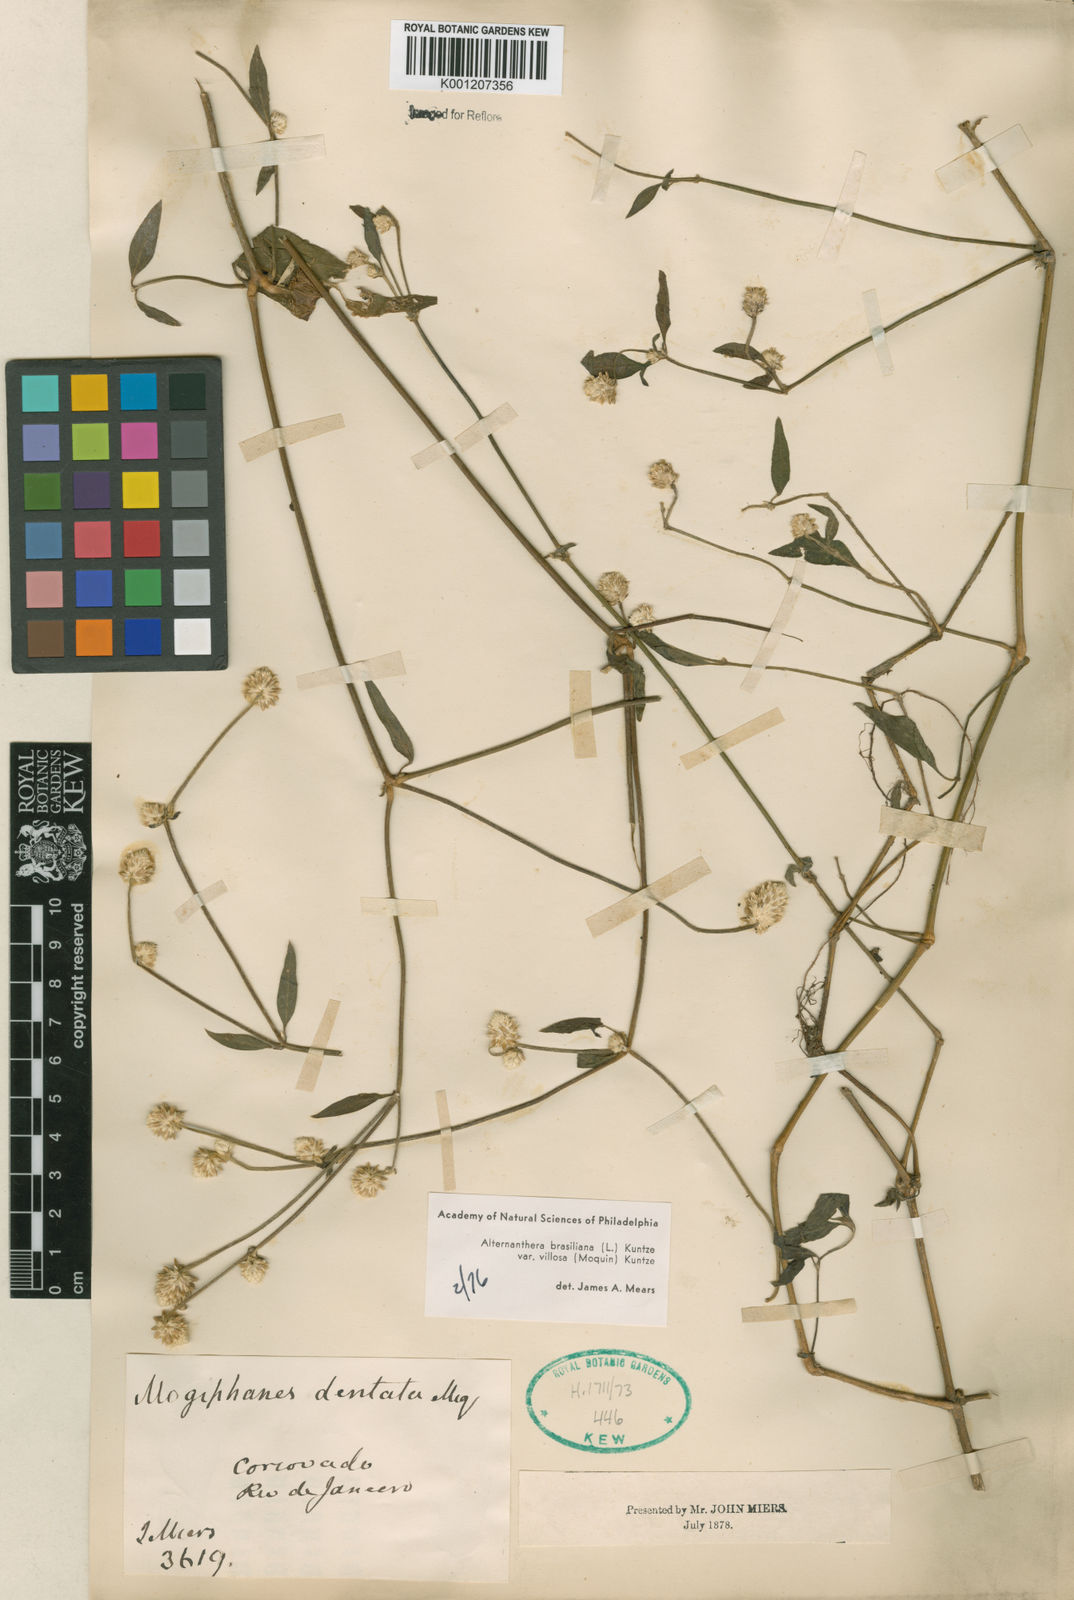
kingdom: Plantae
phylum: Tracheophyta
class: Magnoliopsida
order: Caryophyllales
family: Amaranthaceae
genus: Alternanthera
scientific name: Alternanthera brasiliana
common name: Brazilian joyweed
